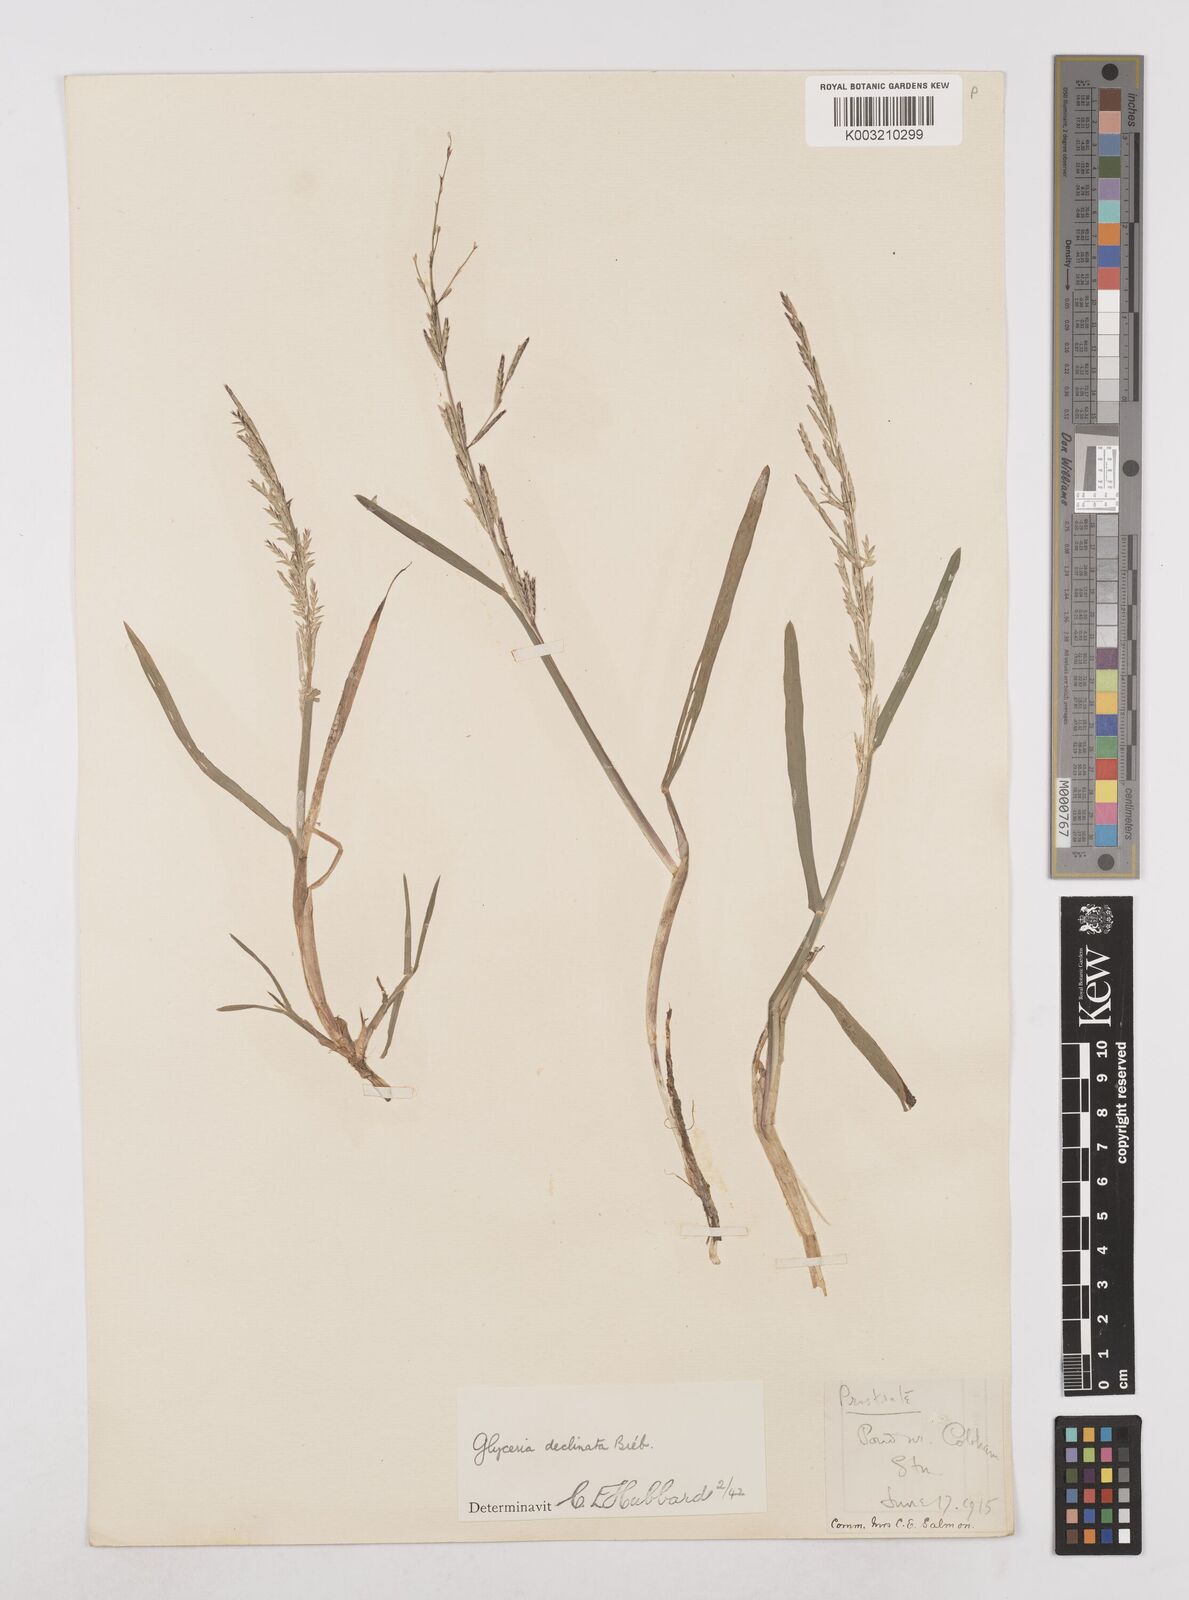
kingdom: Plantae
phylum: Tracheophyta
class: Liliopsida
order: Poales
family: Poaceae
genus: Glyceria
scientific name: Glyceria declinata
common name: Small sweet-grass
